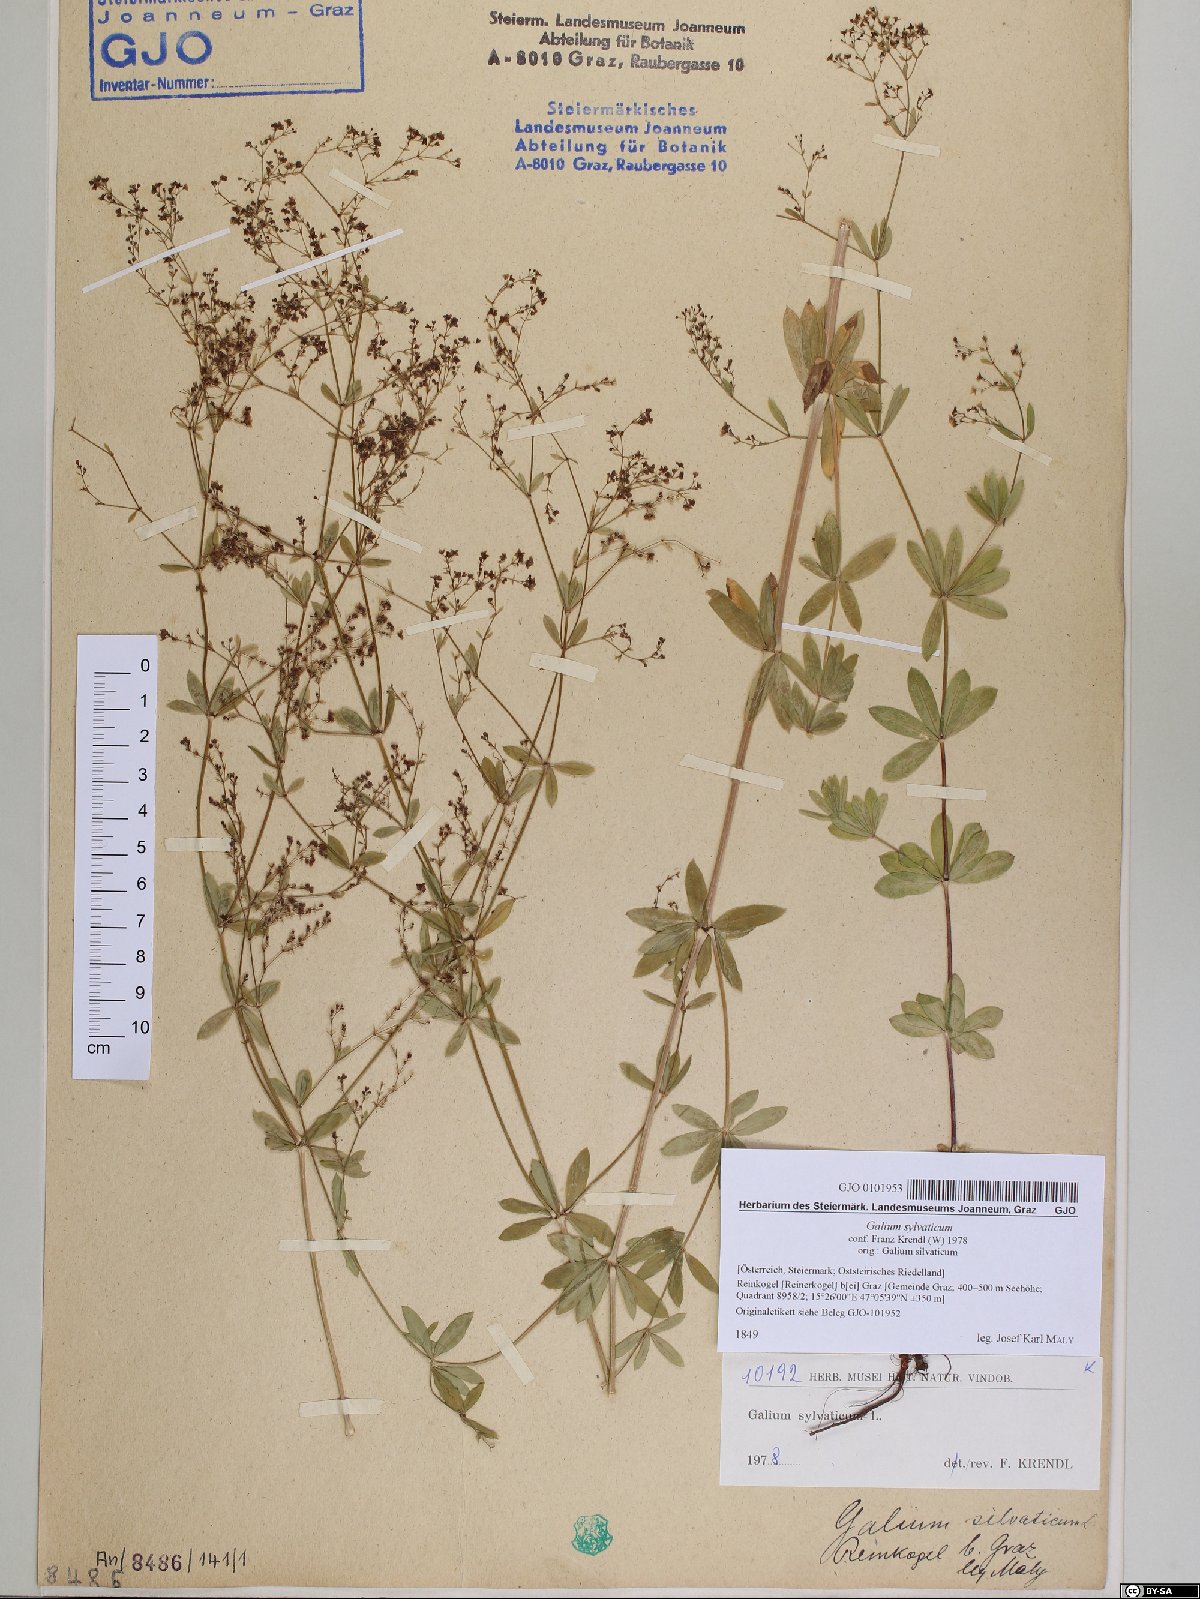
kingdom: Plantae
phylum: Tracheophyta
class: Magnoliopsida
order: Gentianales
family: Rubiaceae
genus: Galium
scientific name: Galium sylvaticum
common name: Wood bedstraw
